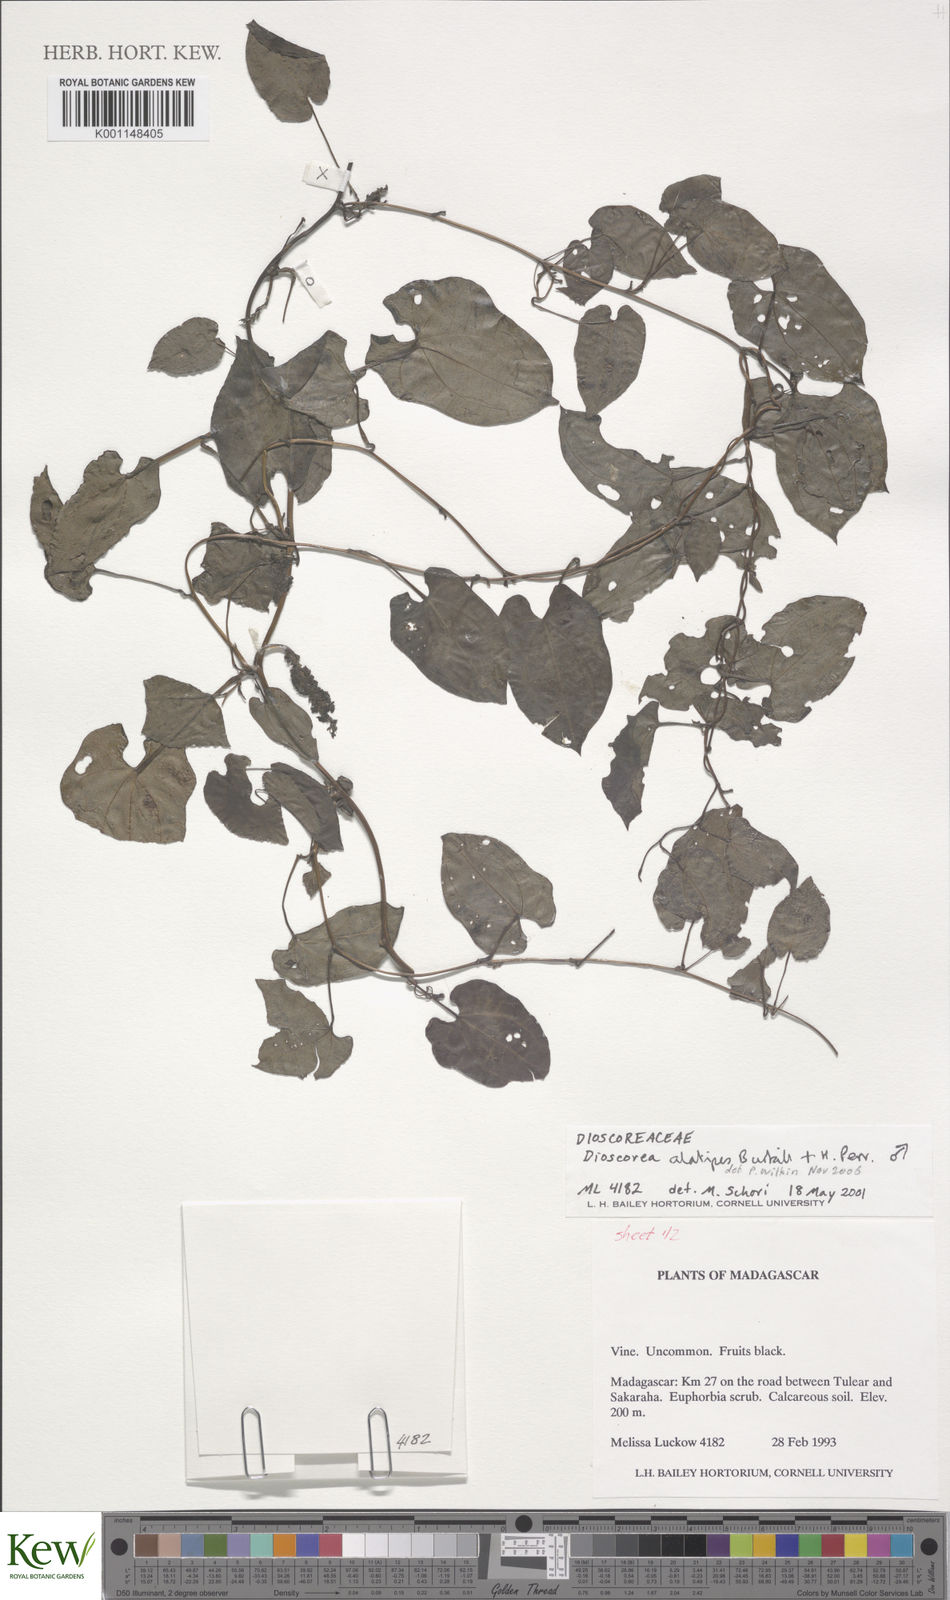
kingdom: Plantae
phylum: Tracheophyta
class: Liliopsida
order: Dioscoreales
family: Dioscoreaceae
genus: Dioscorea
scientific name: Dioscorea alatipes
